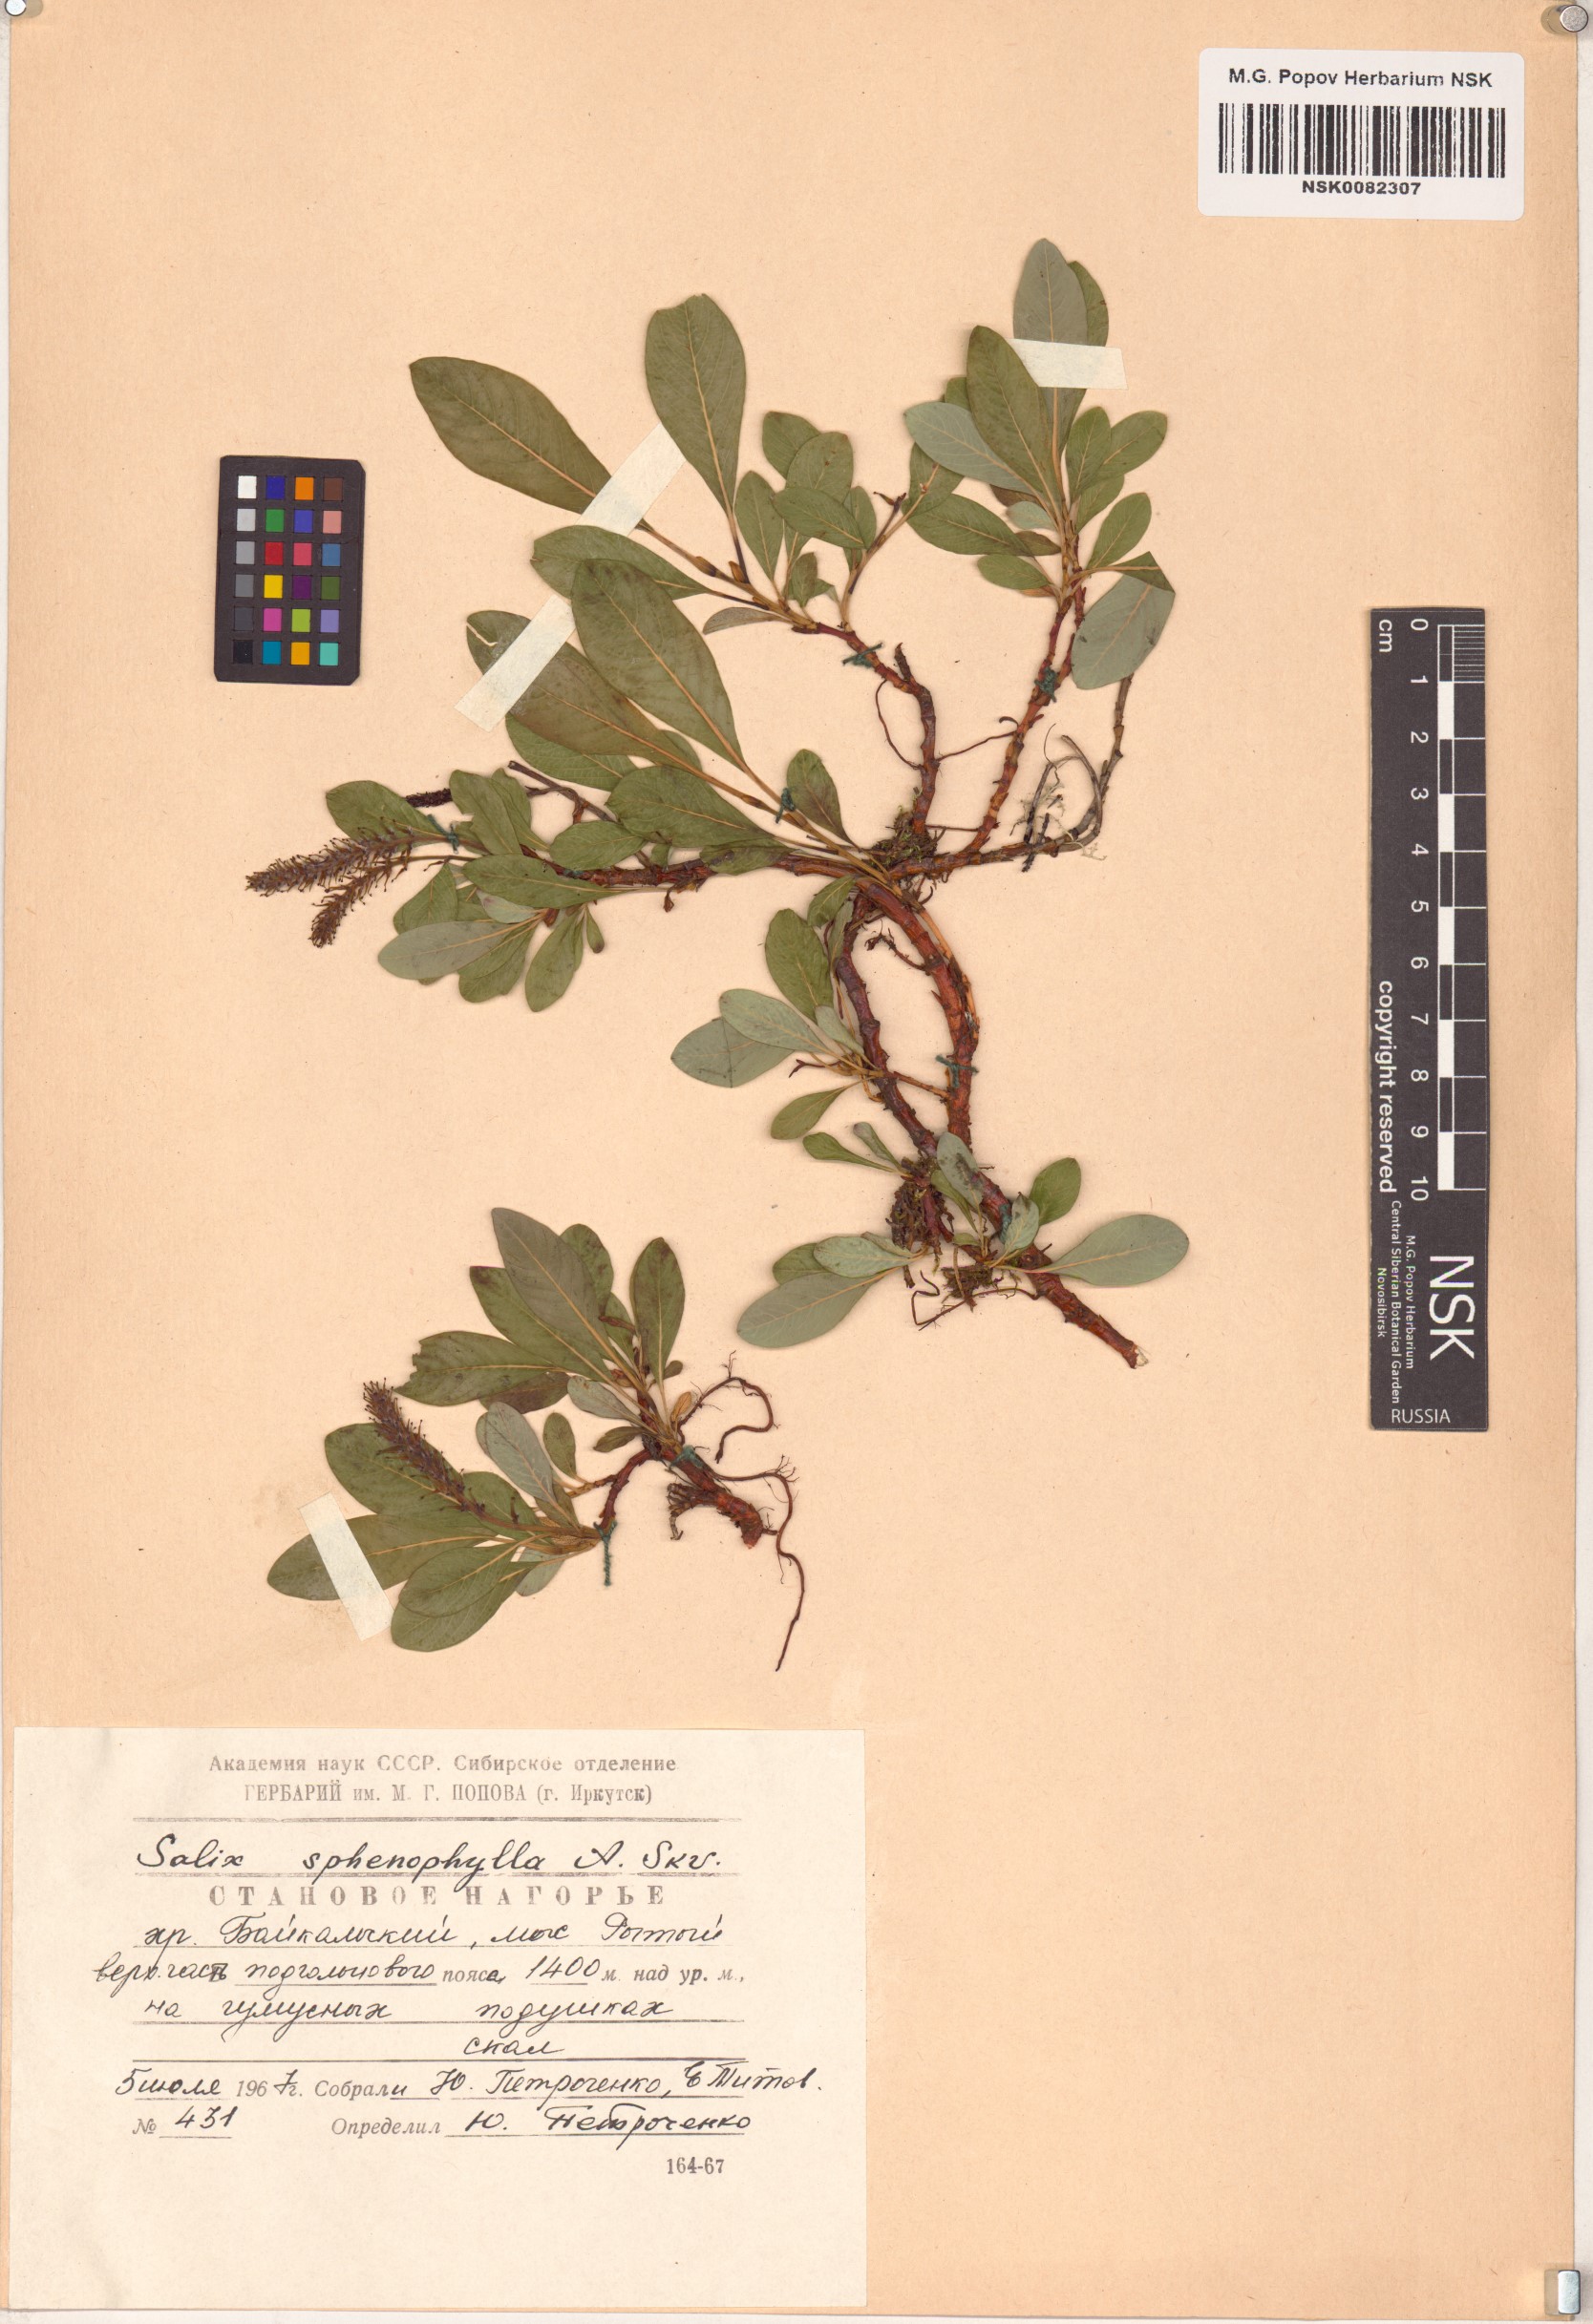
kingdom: Plantae
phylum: Tracheophyta
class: Magnoliopsida
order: Malpighiales
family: Salicaceae
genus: Salix
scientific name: Salix sphenophylla
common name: Wedge-leaved willow
